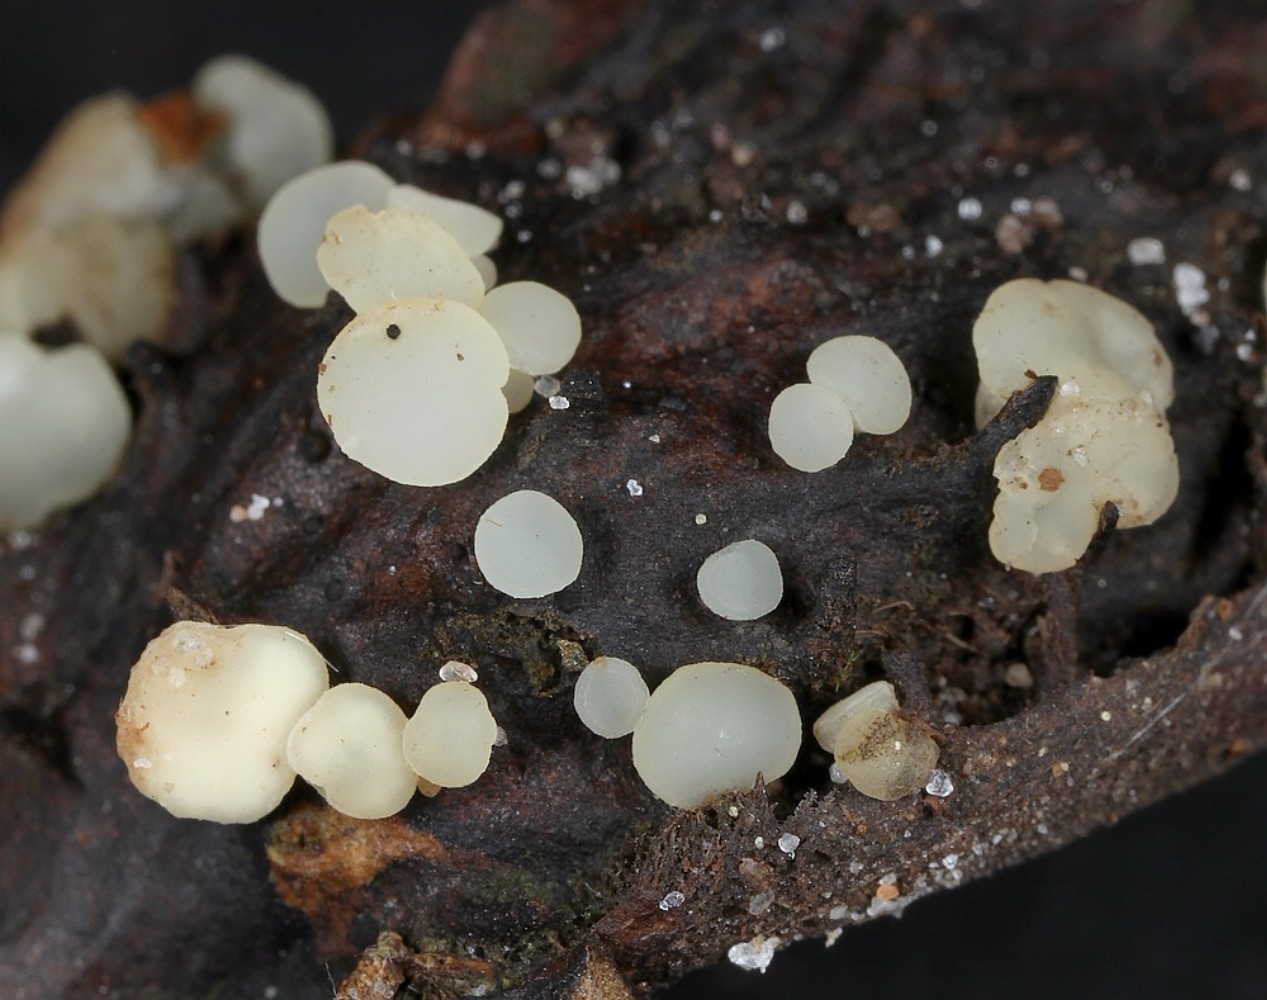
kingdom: Fungi
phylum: Ascomycota
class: Leotiomycetes
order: Helotiales
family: Helotiaceae
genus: Hymenoscyphus
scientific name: Hymenoscyphus fagineus
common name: vellugtende stilkskive
